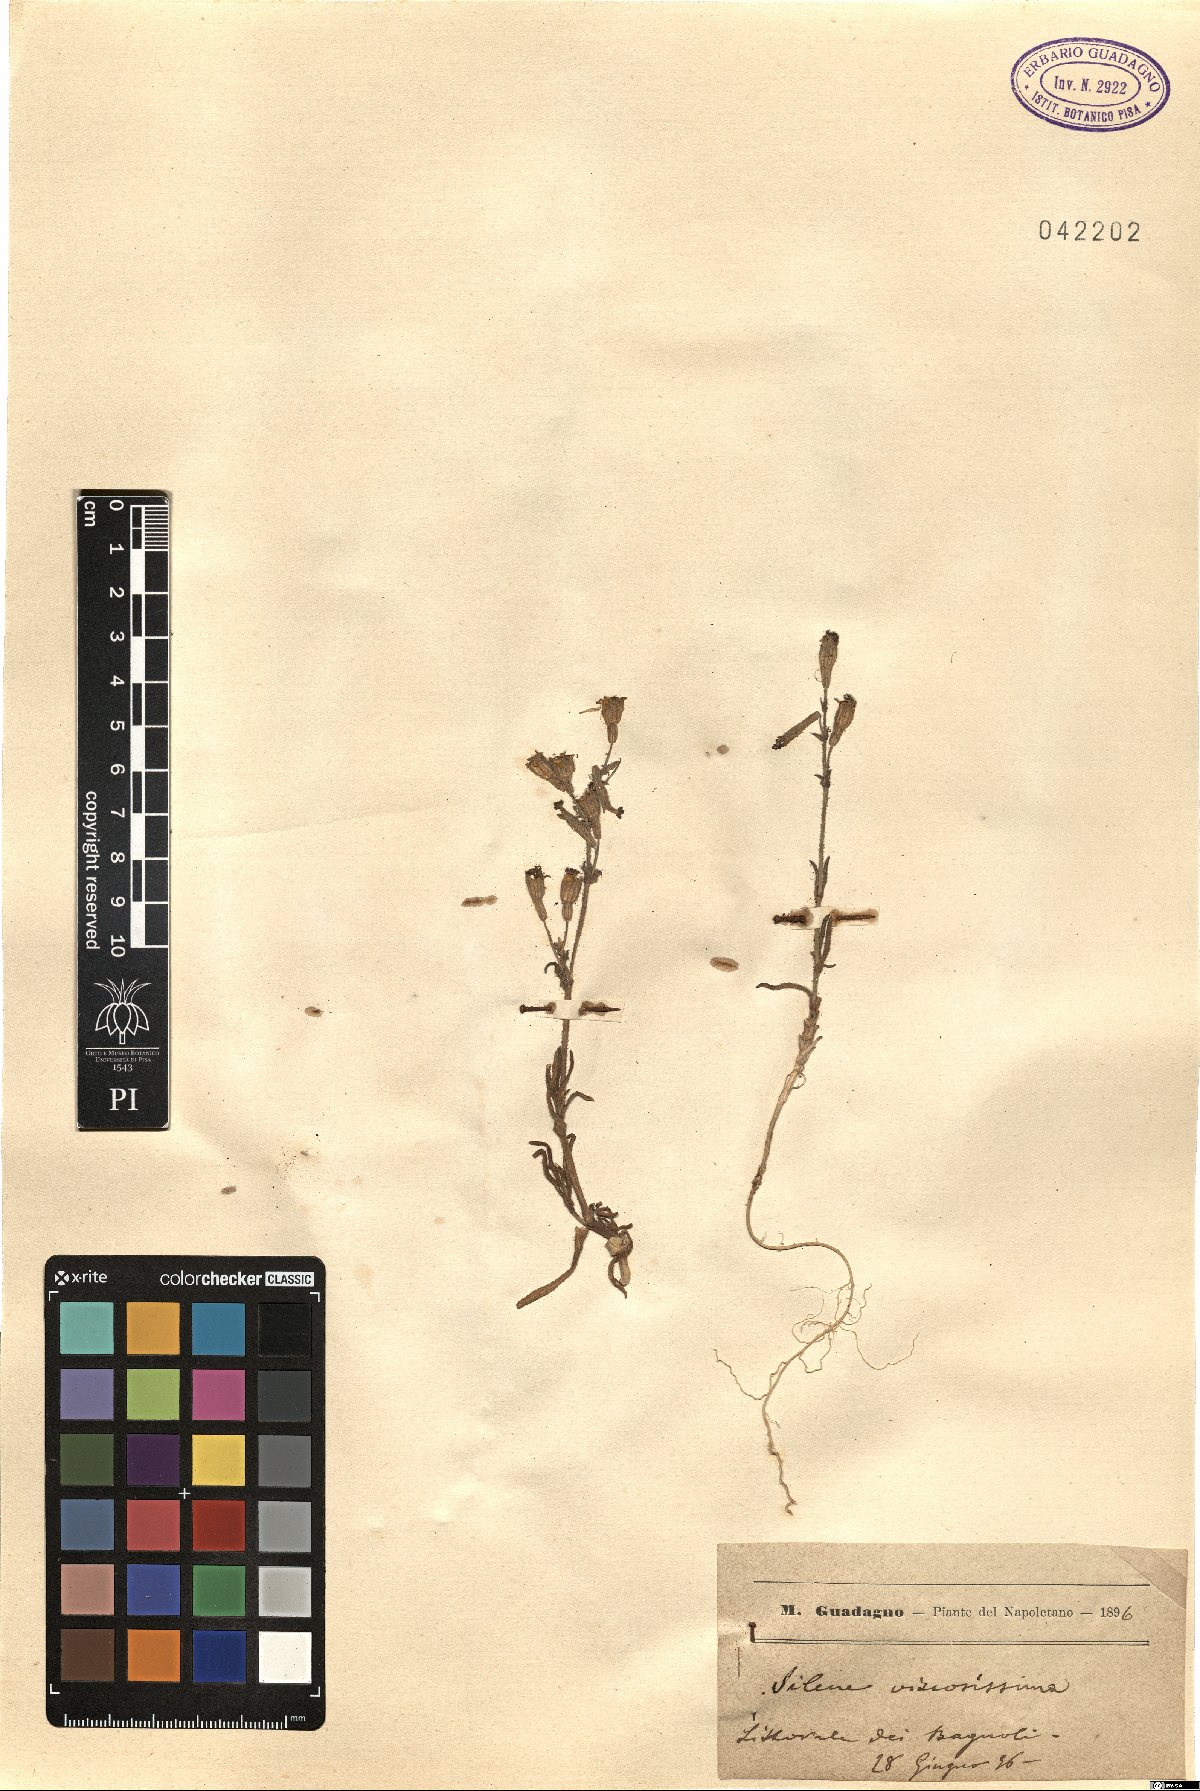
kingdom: Plantae
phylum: Tracheophyta
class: Magnoliopsida
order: Caryophyllales
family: Caryophyllaceae
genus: Silene
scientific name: Silene nicaeensis
